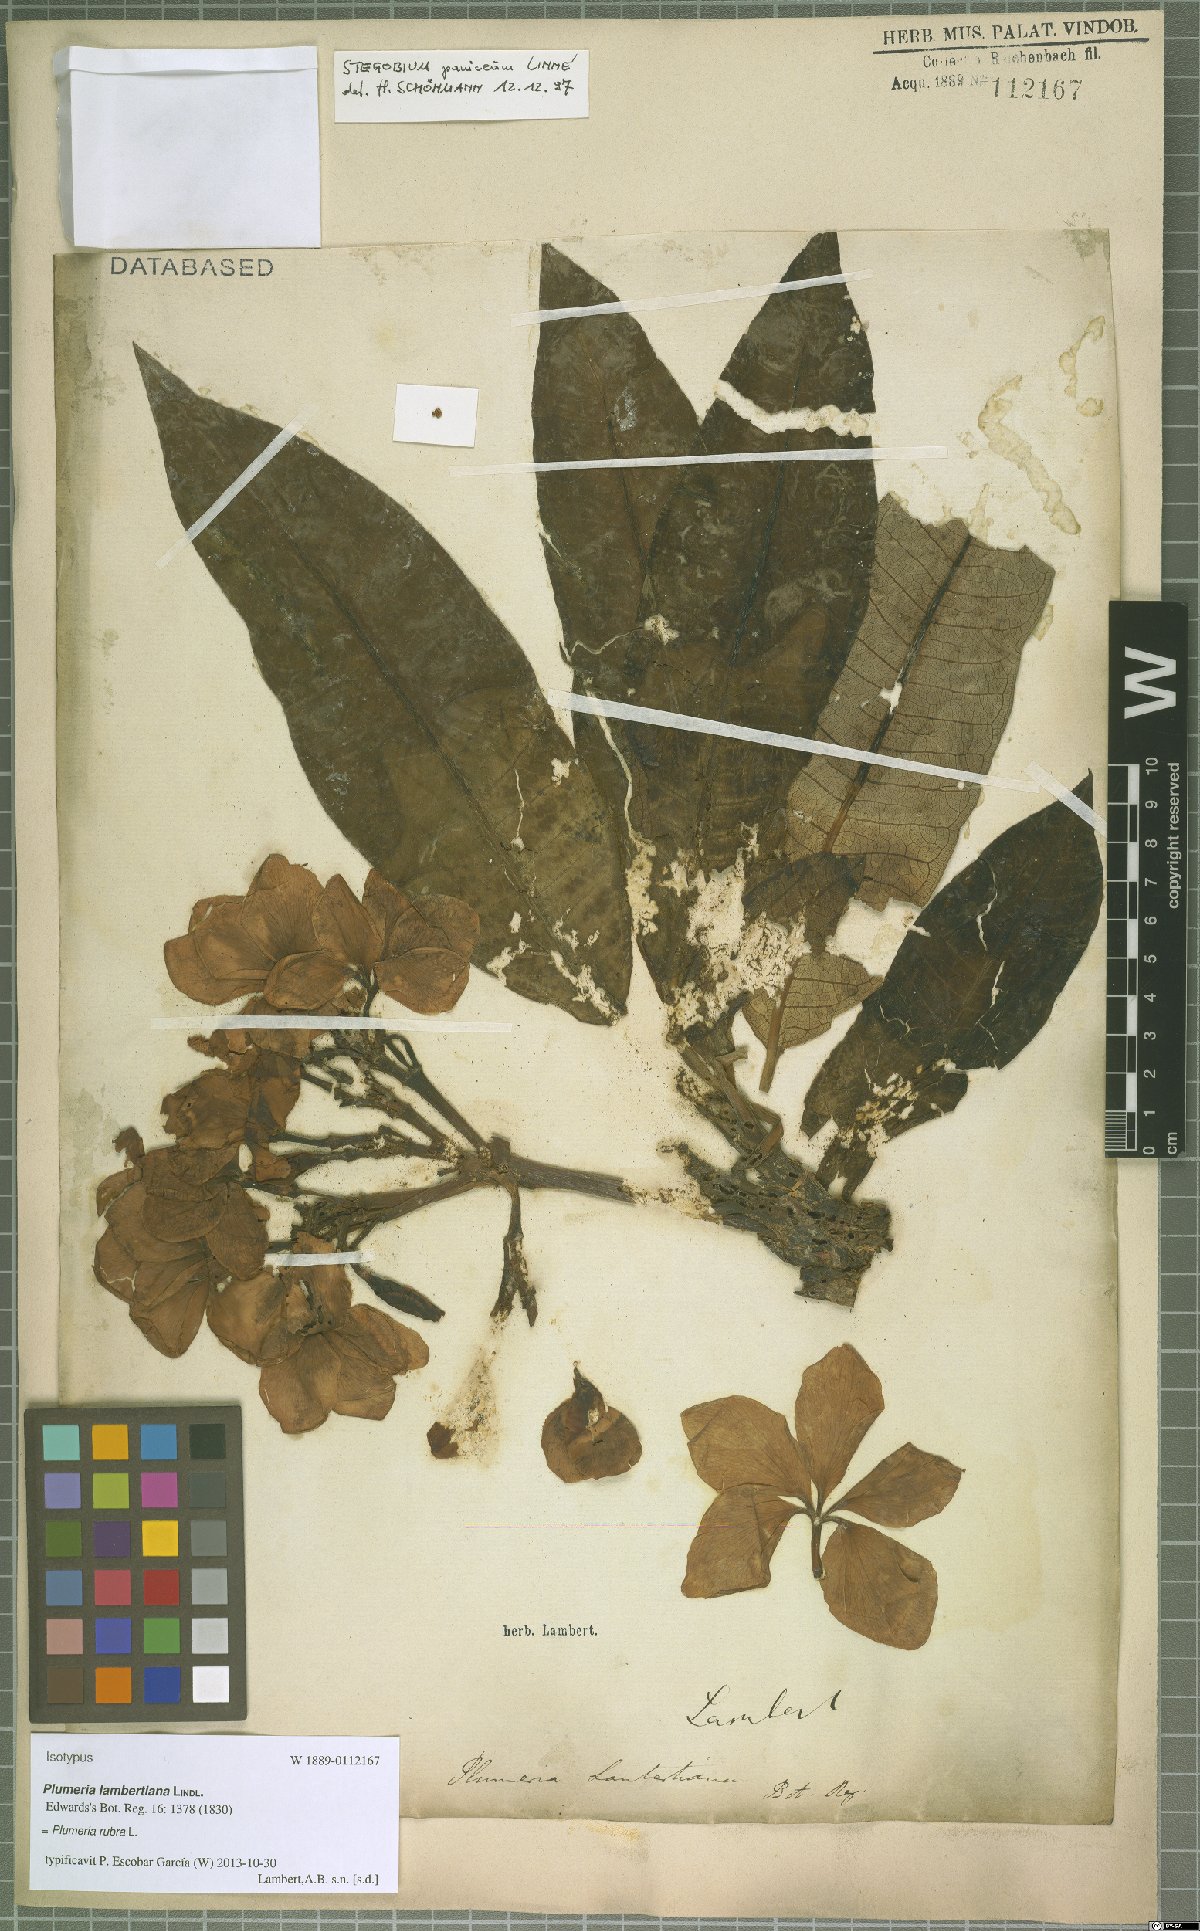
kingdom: Plantae
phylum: Tracheophyta
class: Magnoliopsida
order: Gentianales
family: Apocynaceae
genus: Plumeria
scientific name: Plumeria rubra
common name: Pagoda-tree
